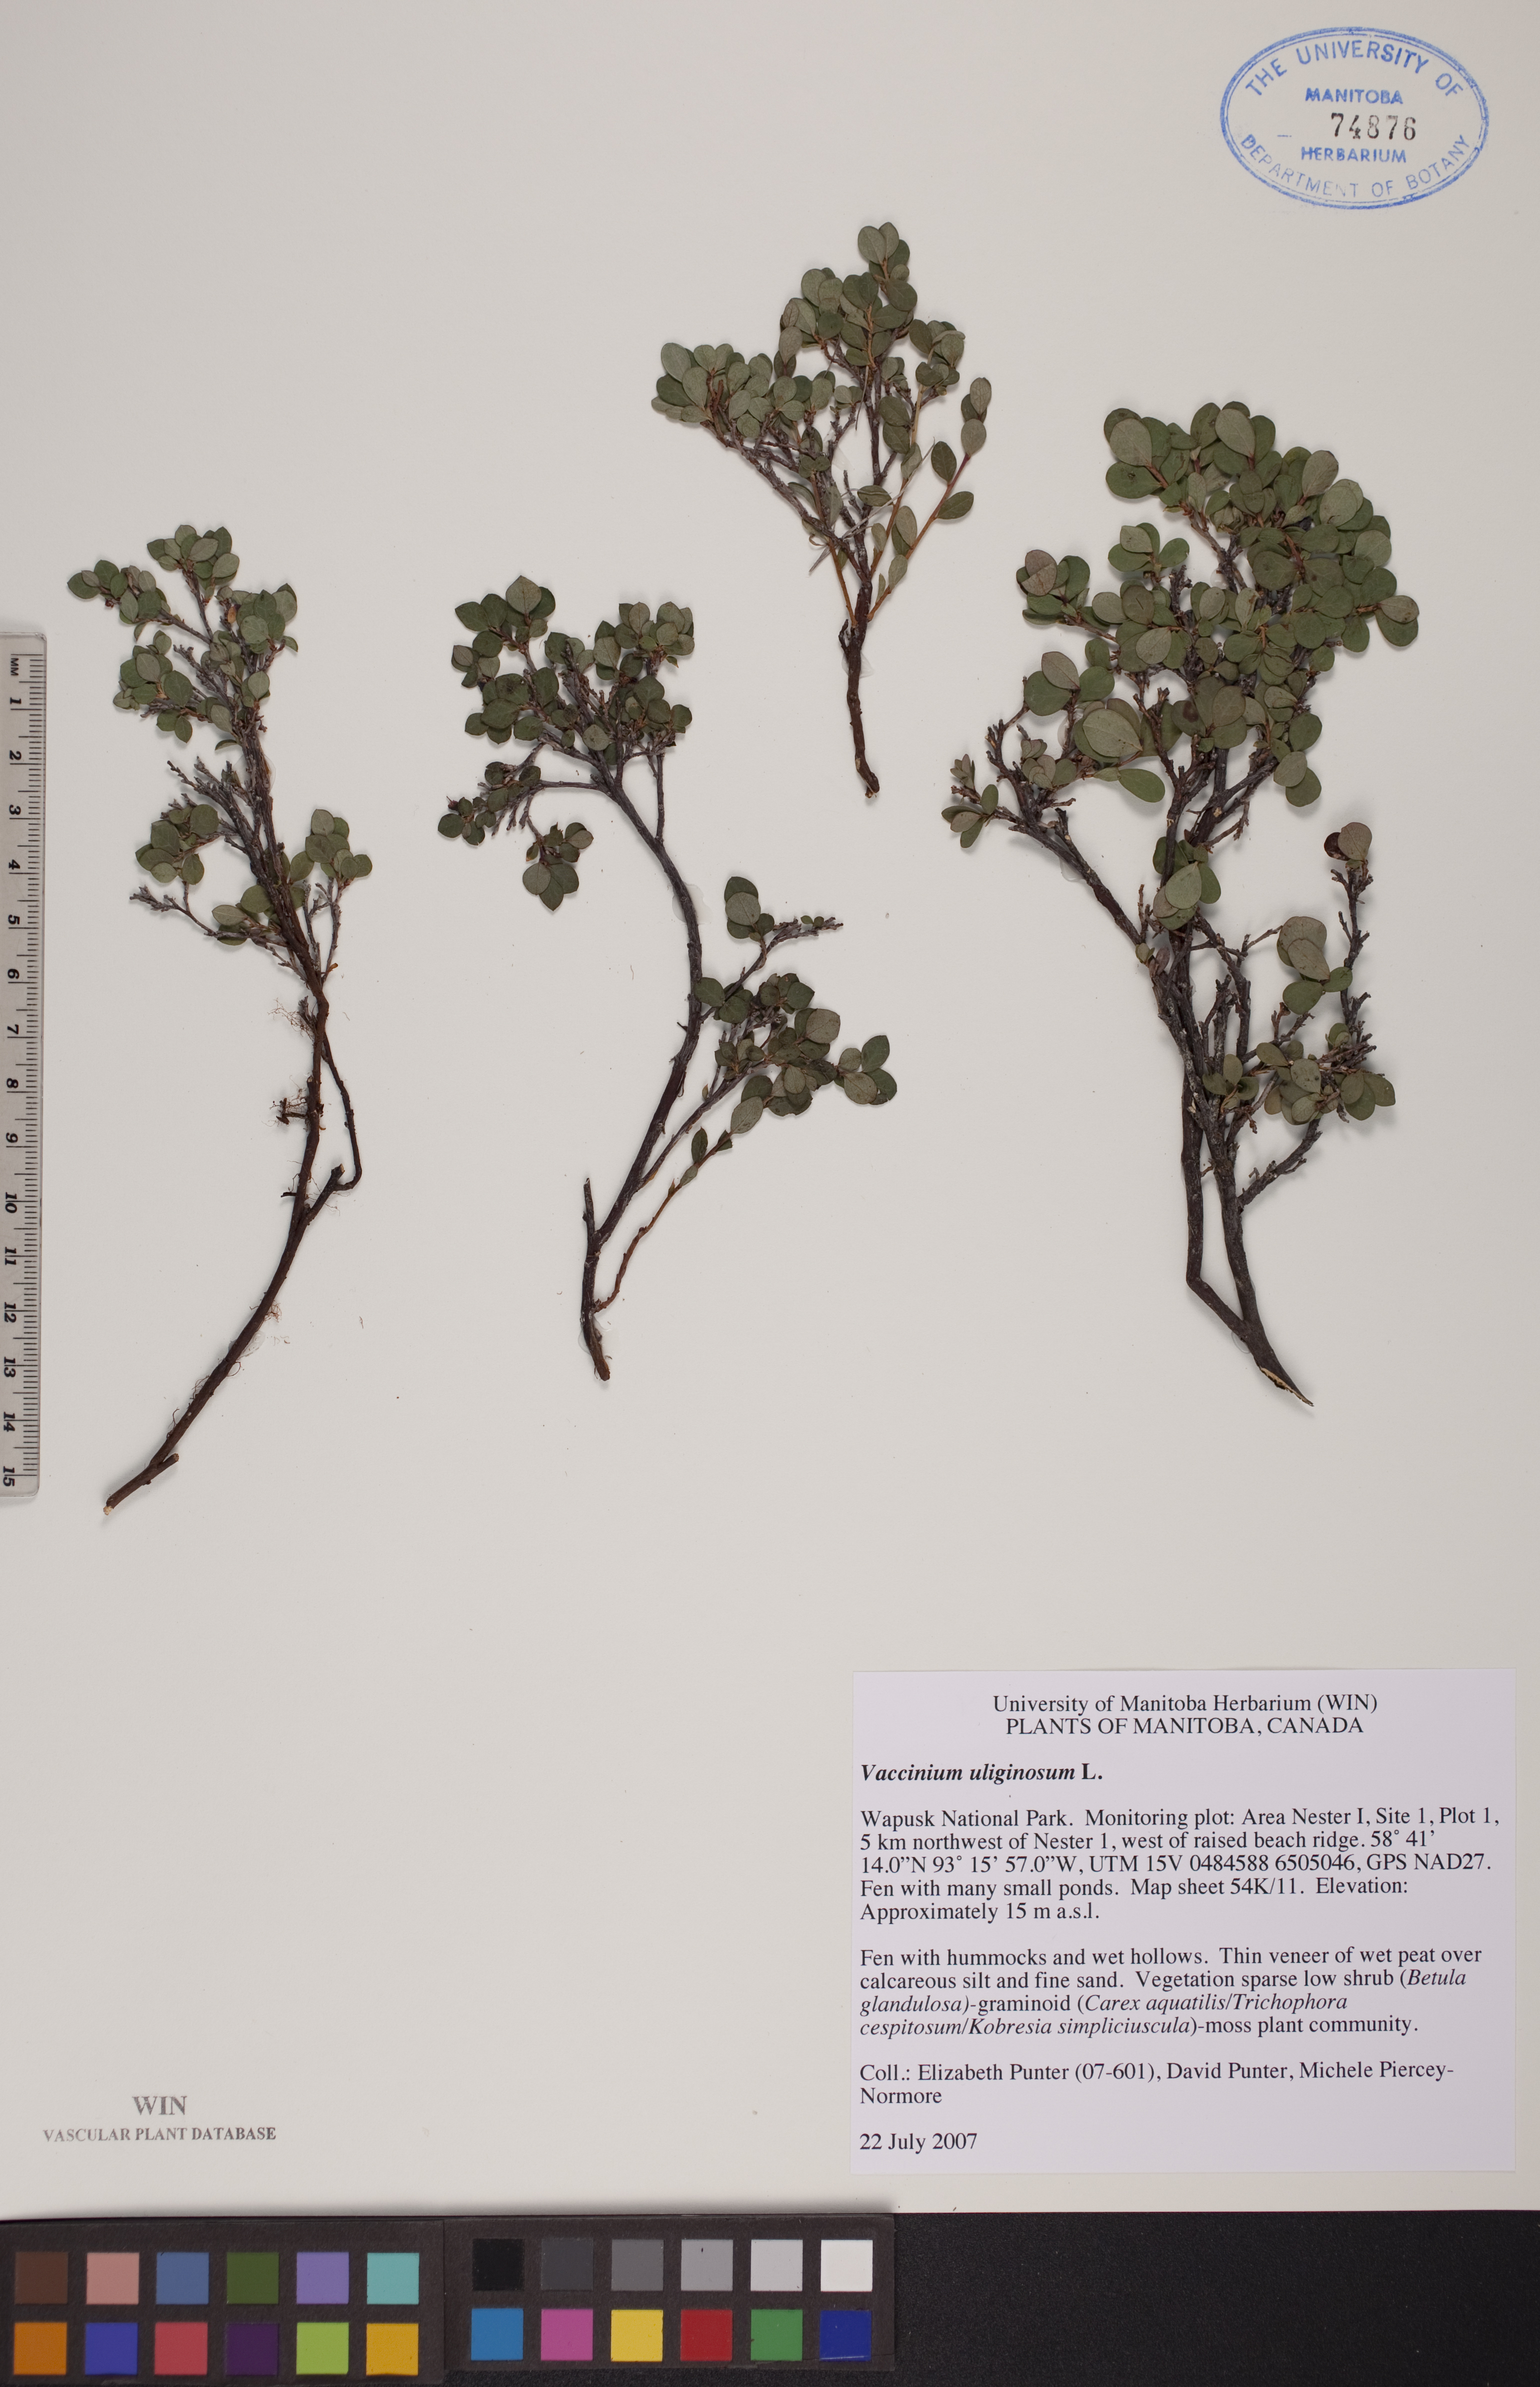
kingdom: Plantae
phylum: Tracheophyta
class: Magnoliopsida
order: Ericales
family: Ericaceae
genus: Vaccinium
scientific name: Vaccinium uliginosum
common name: Bog bilberry
